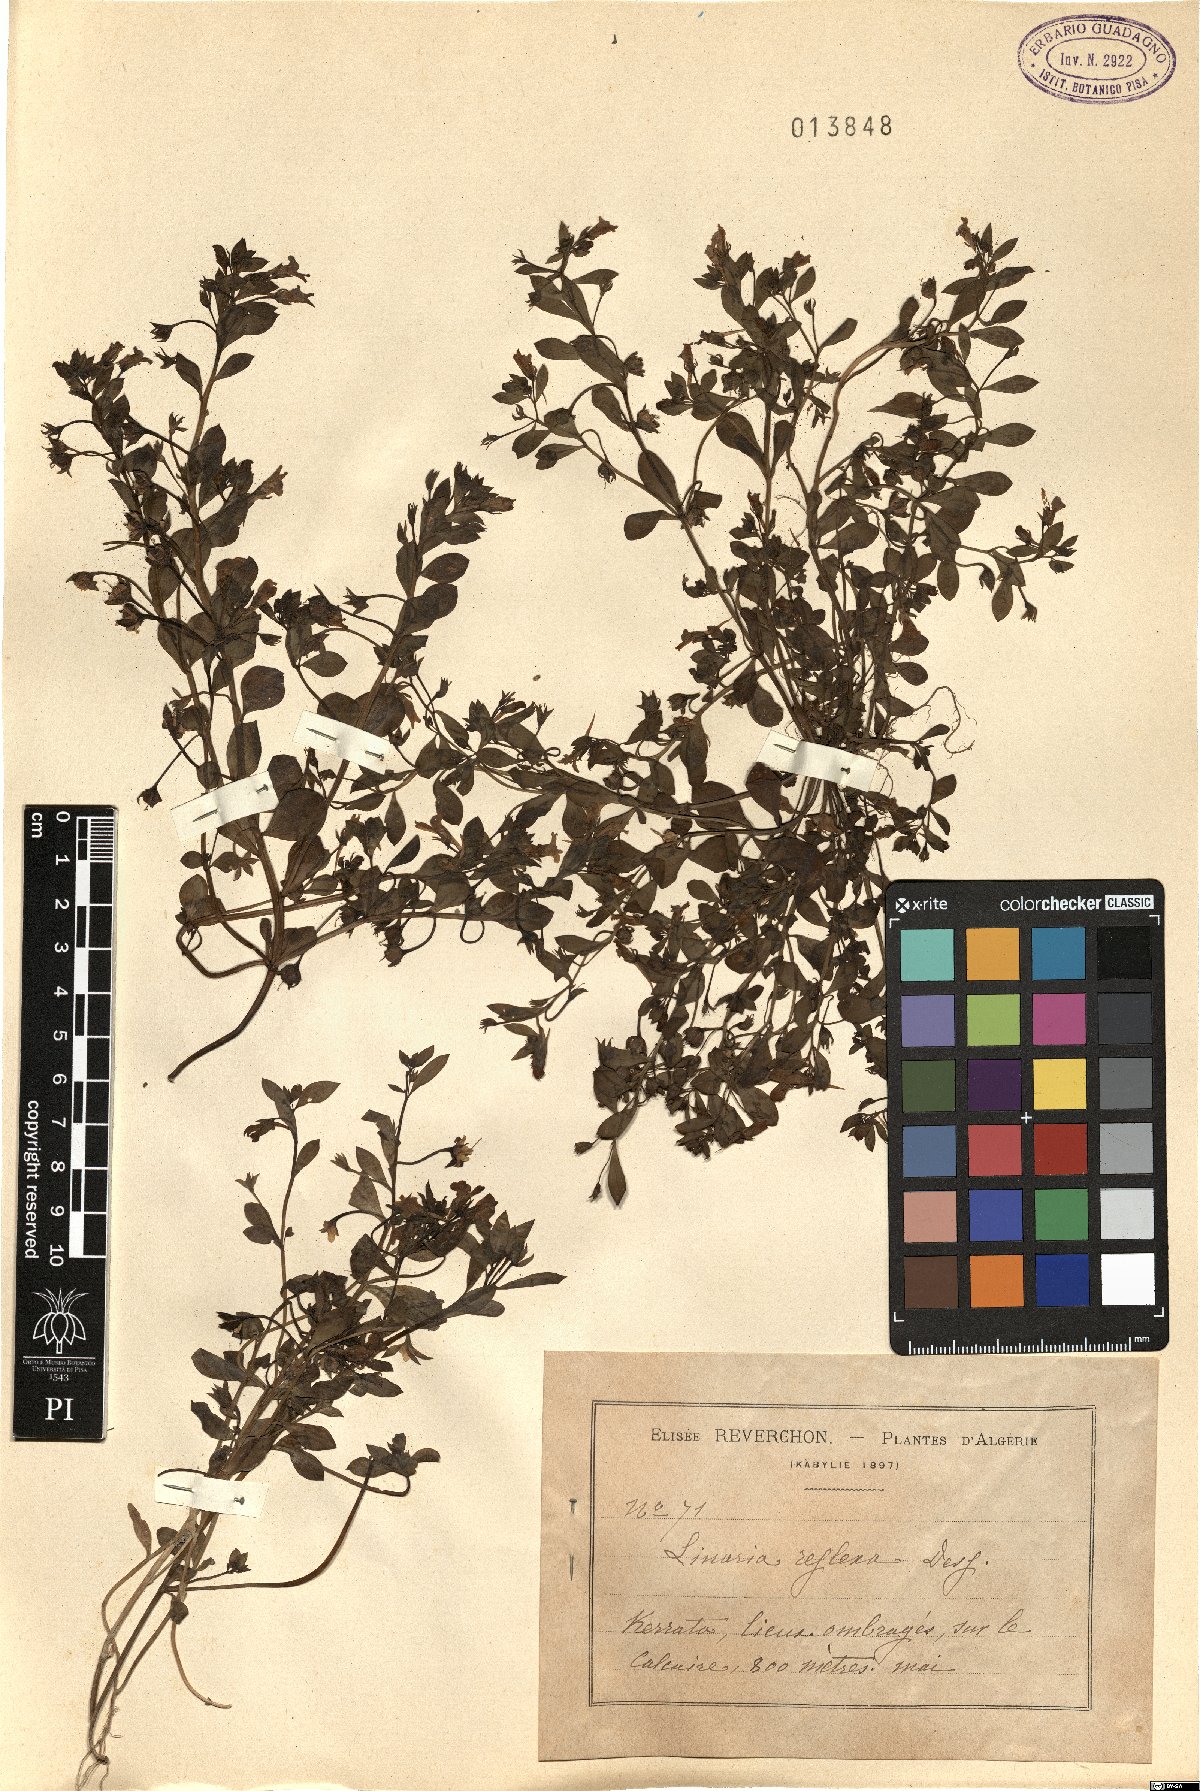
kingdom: Plantae
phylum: Tracheophyta
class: Magnoliopsida
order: Lamiales
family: Plantaginaceae
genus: Linaria
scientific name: Linaria reflexa
